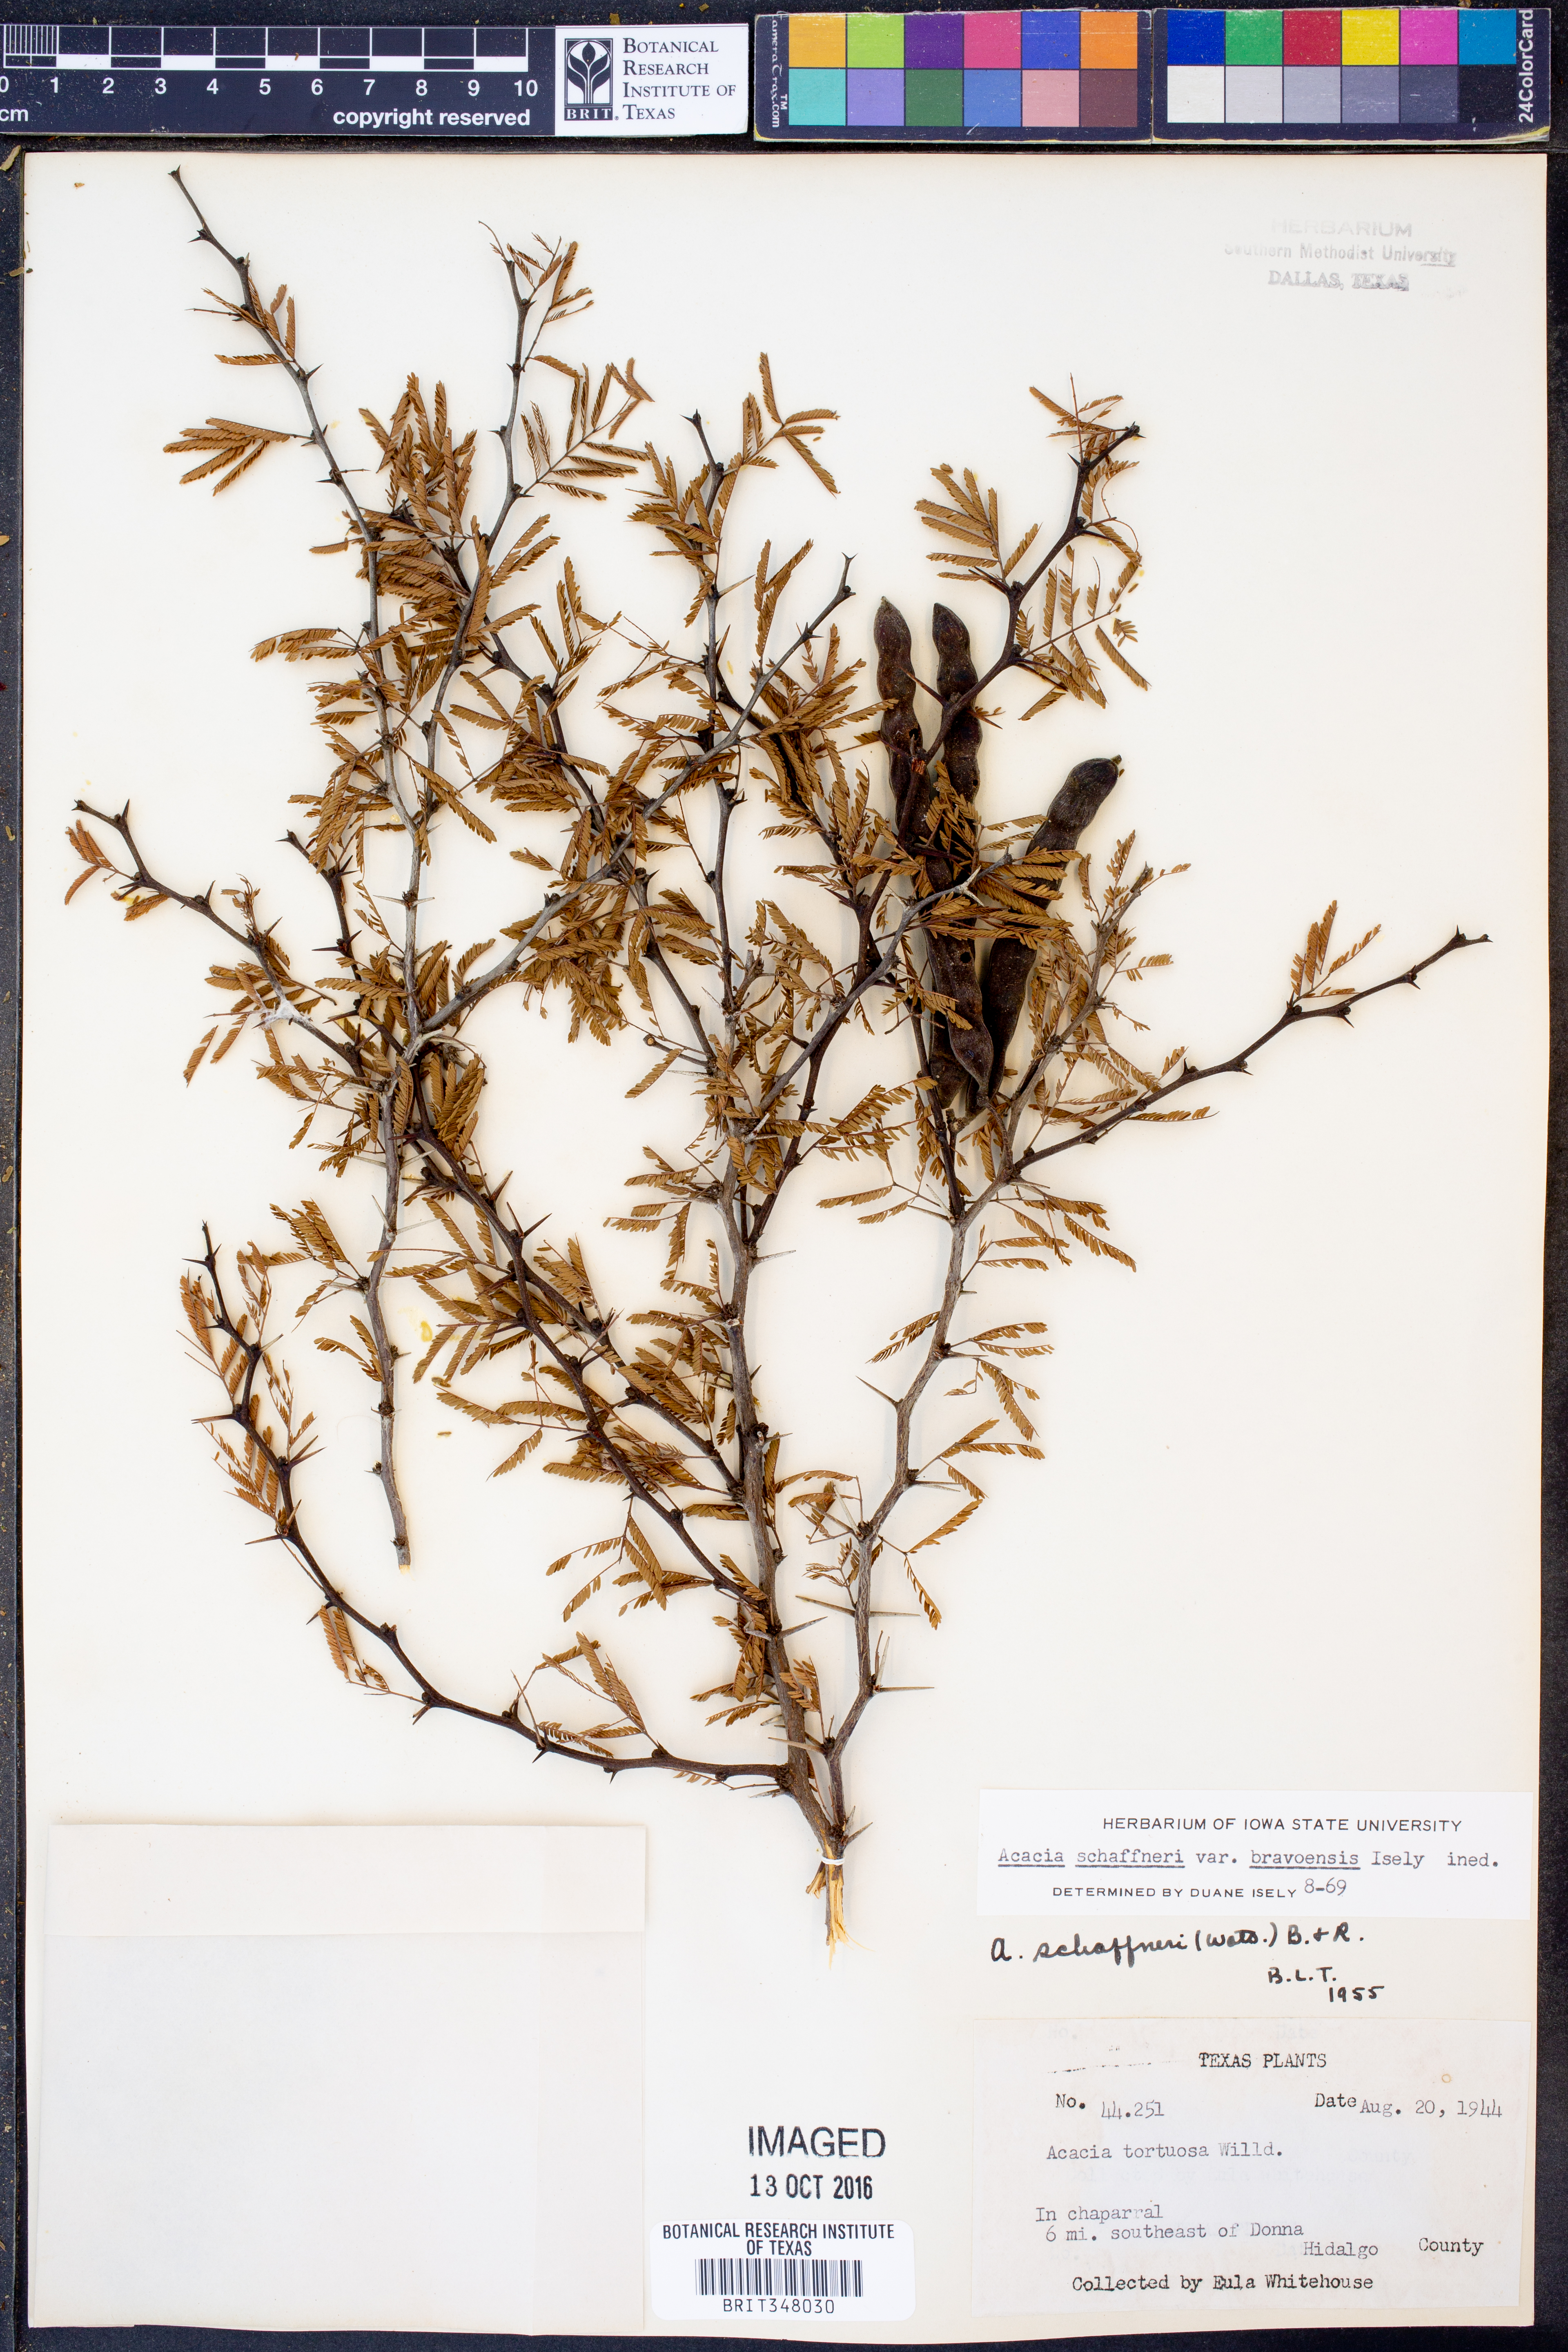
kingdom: Plantae
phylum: Tracheophyta
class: Magnoliopsida
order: Fabales
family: Fabaceae
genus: Vachellia
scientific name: Vachellia bravoensis
